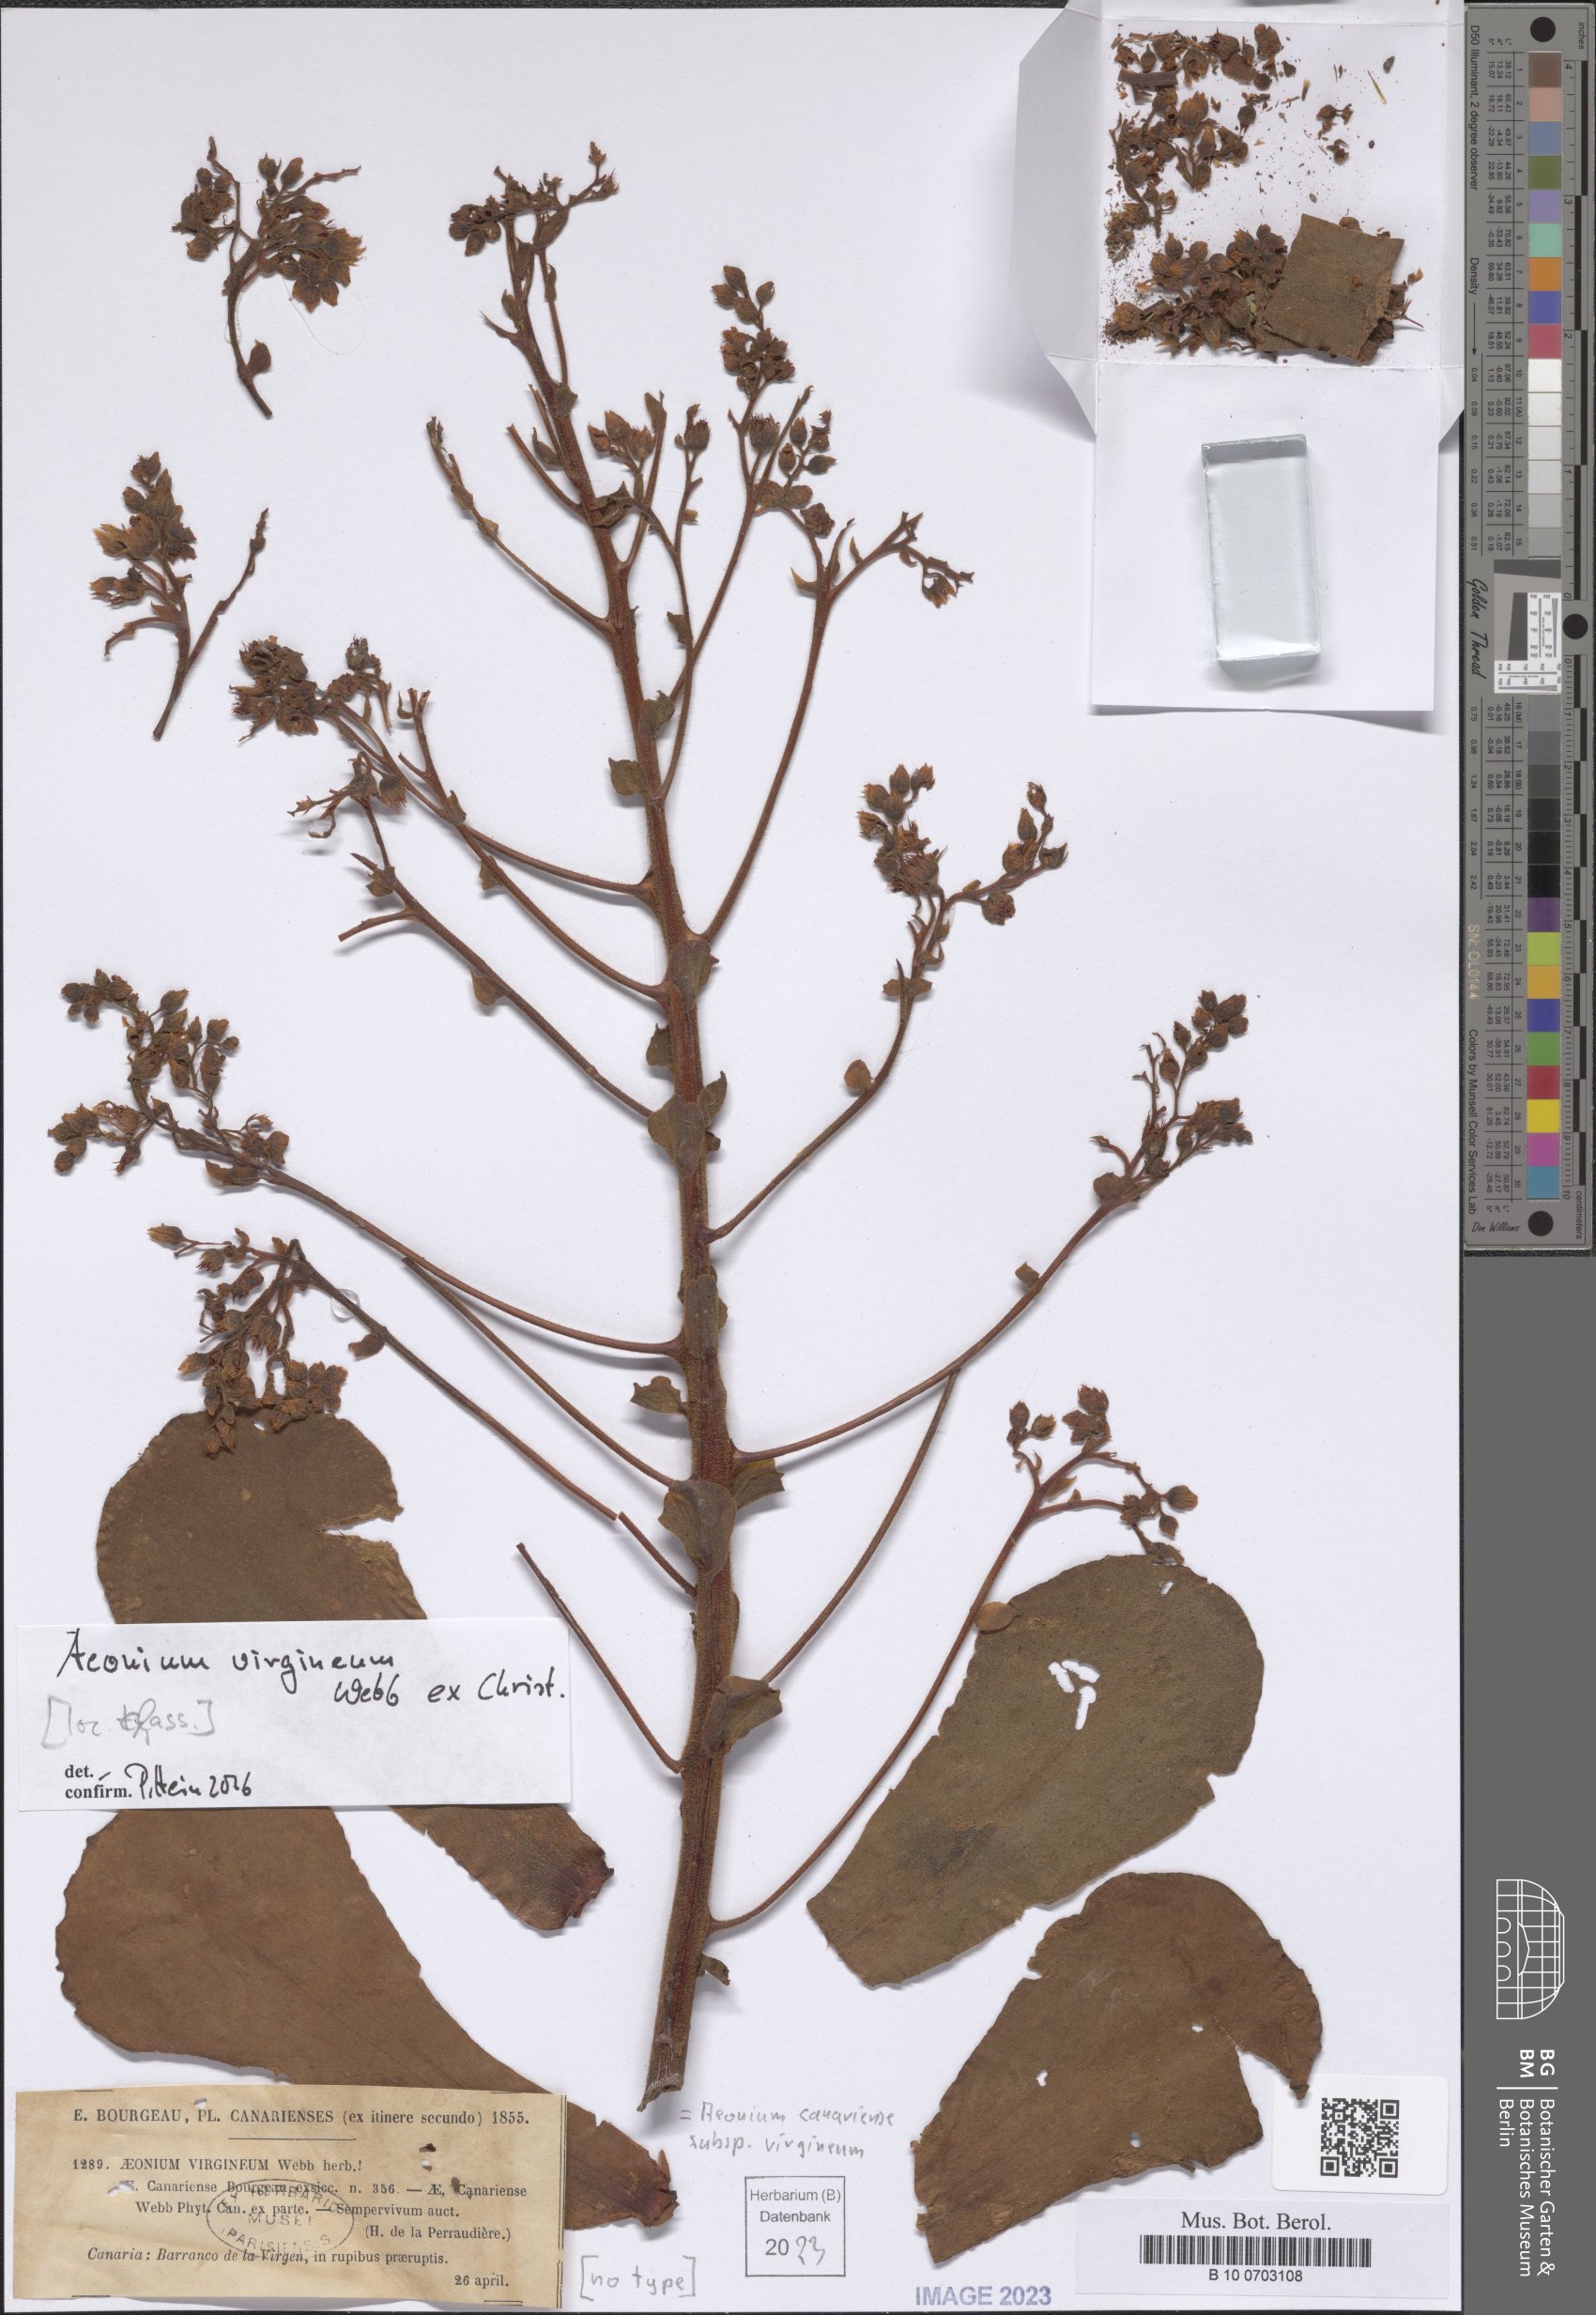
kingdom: Plantae
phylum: Tracheophyta
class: Magnoliopsida
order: Saxifragales
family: Crassulaceae
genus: Aeonium
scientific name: Aeonium canariense
